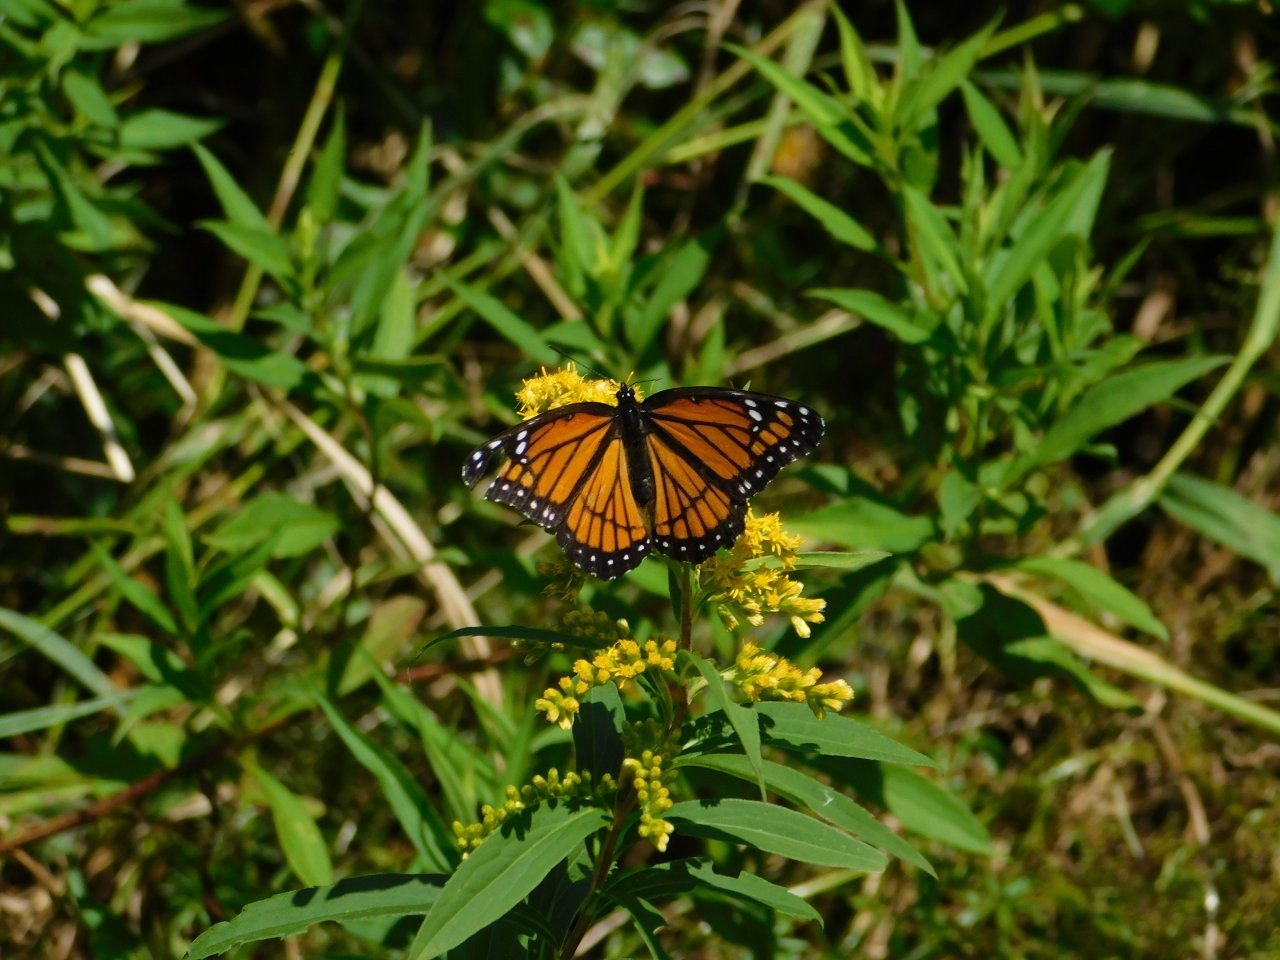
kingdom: Animalia
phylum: Arthropoda
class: Insecta
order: Lepidoptera
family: Nymphalidae
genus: Limenitis
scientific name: Limenitis archippus
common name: Viceroy
